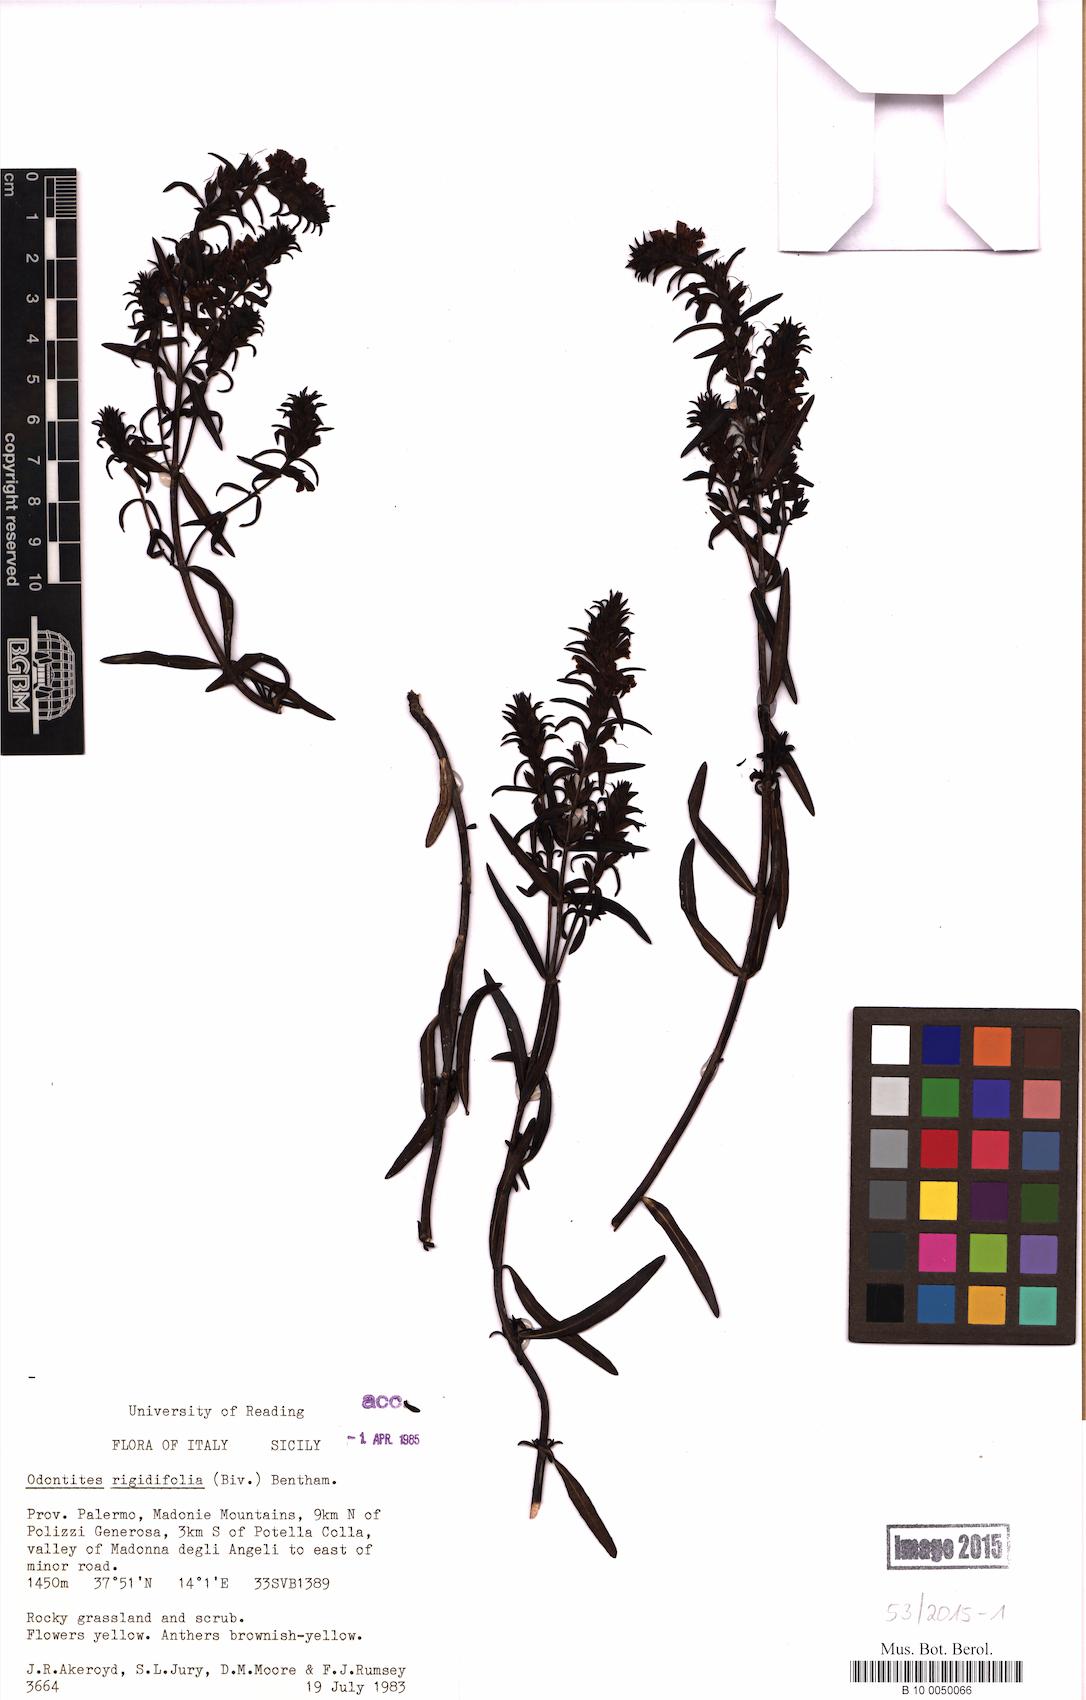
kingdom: Plantae
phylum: Tracheophyta
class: Magnoliopsida
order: Lamiales
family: Orobanchaceae
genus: Odontites
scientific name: Odontites rigidifolius
